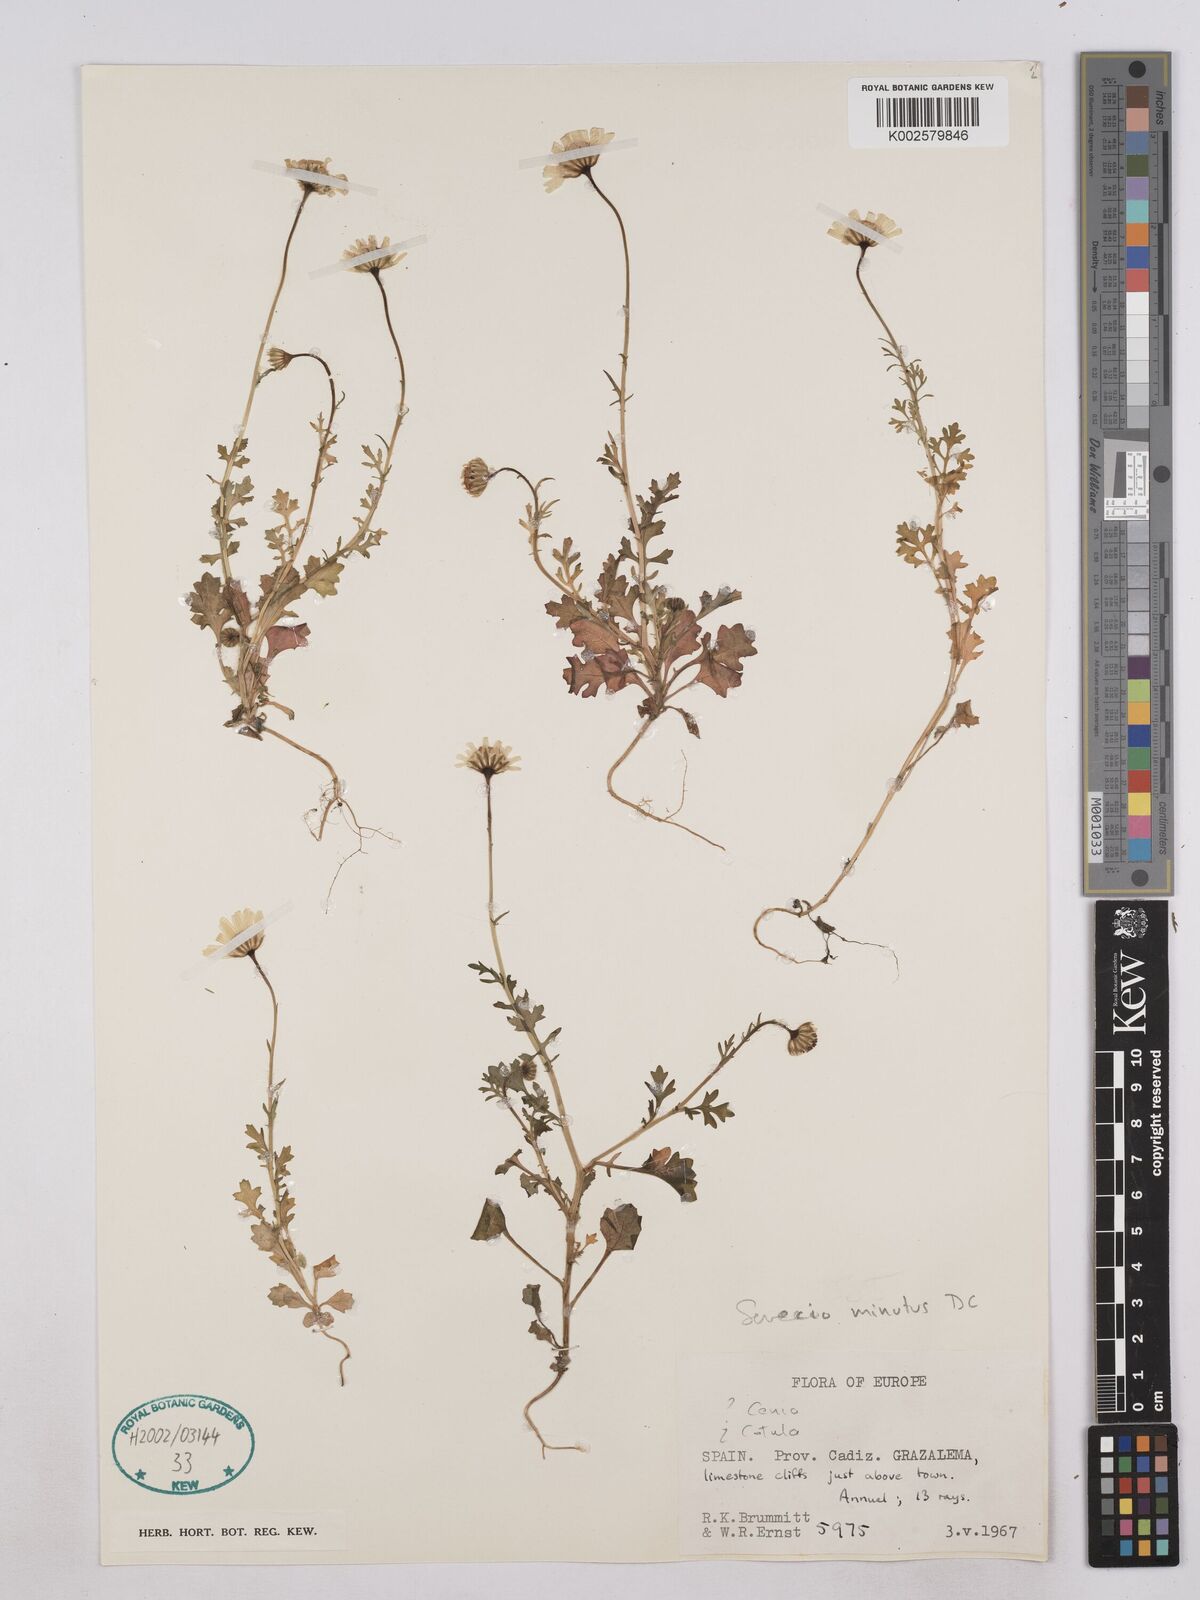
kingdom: Plantae
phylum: Tracheophyta
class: Magnoliopsida
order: Asterales
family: Asteraceae
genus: Jacobaea
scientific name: Jacobaea minuta
